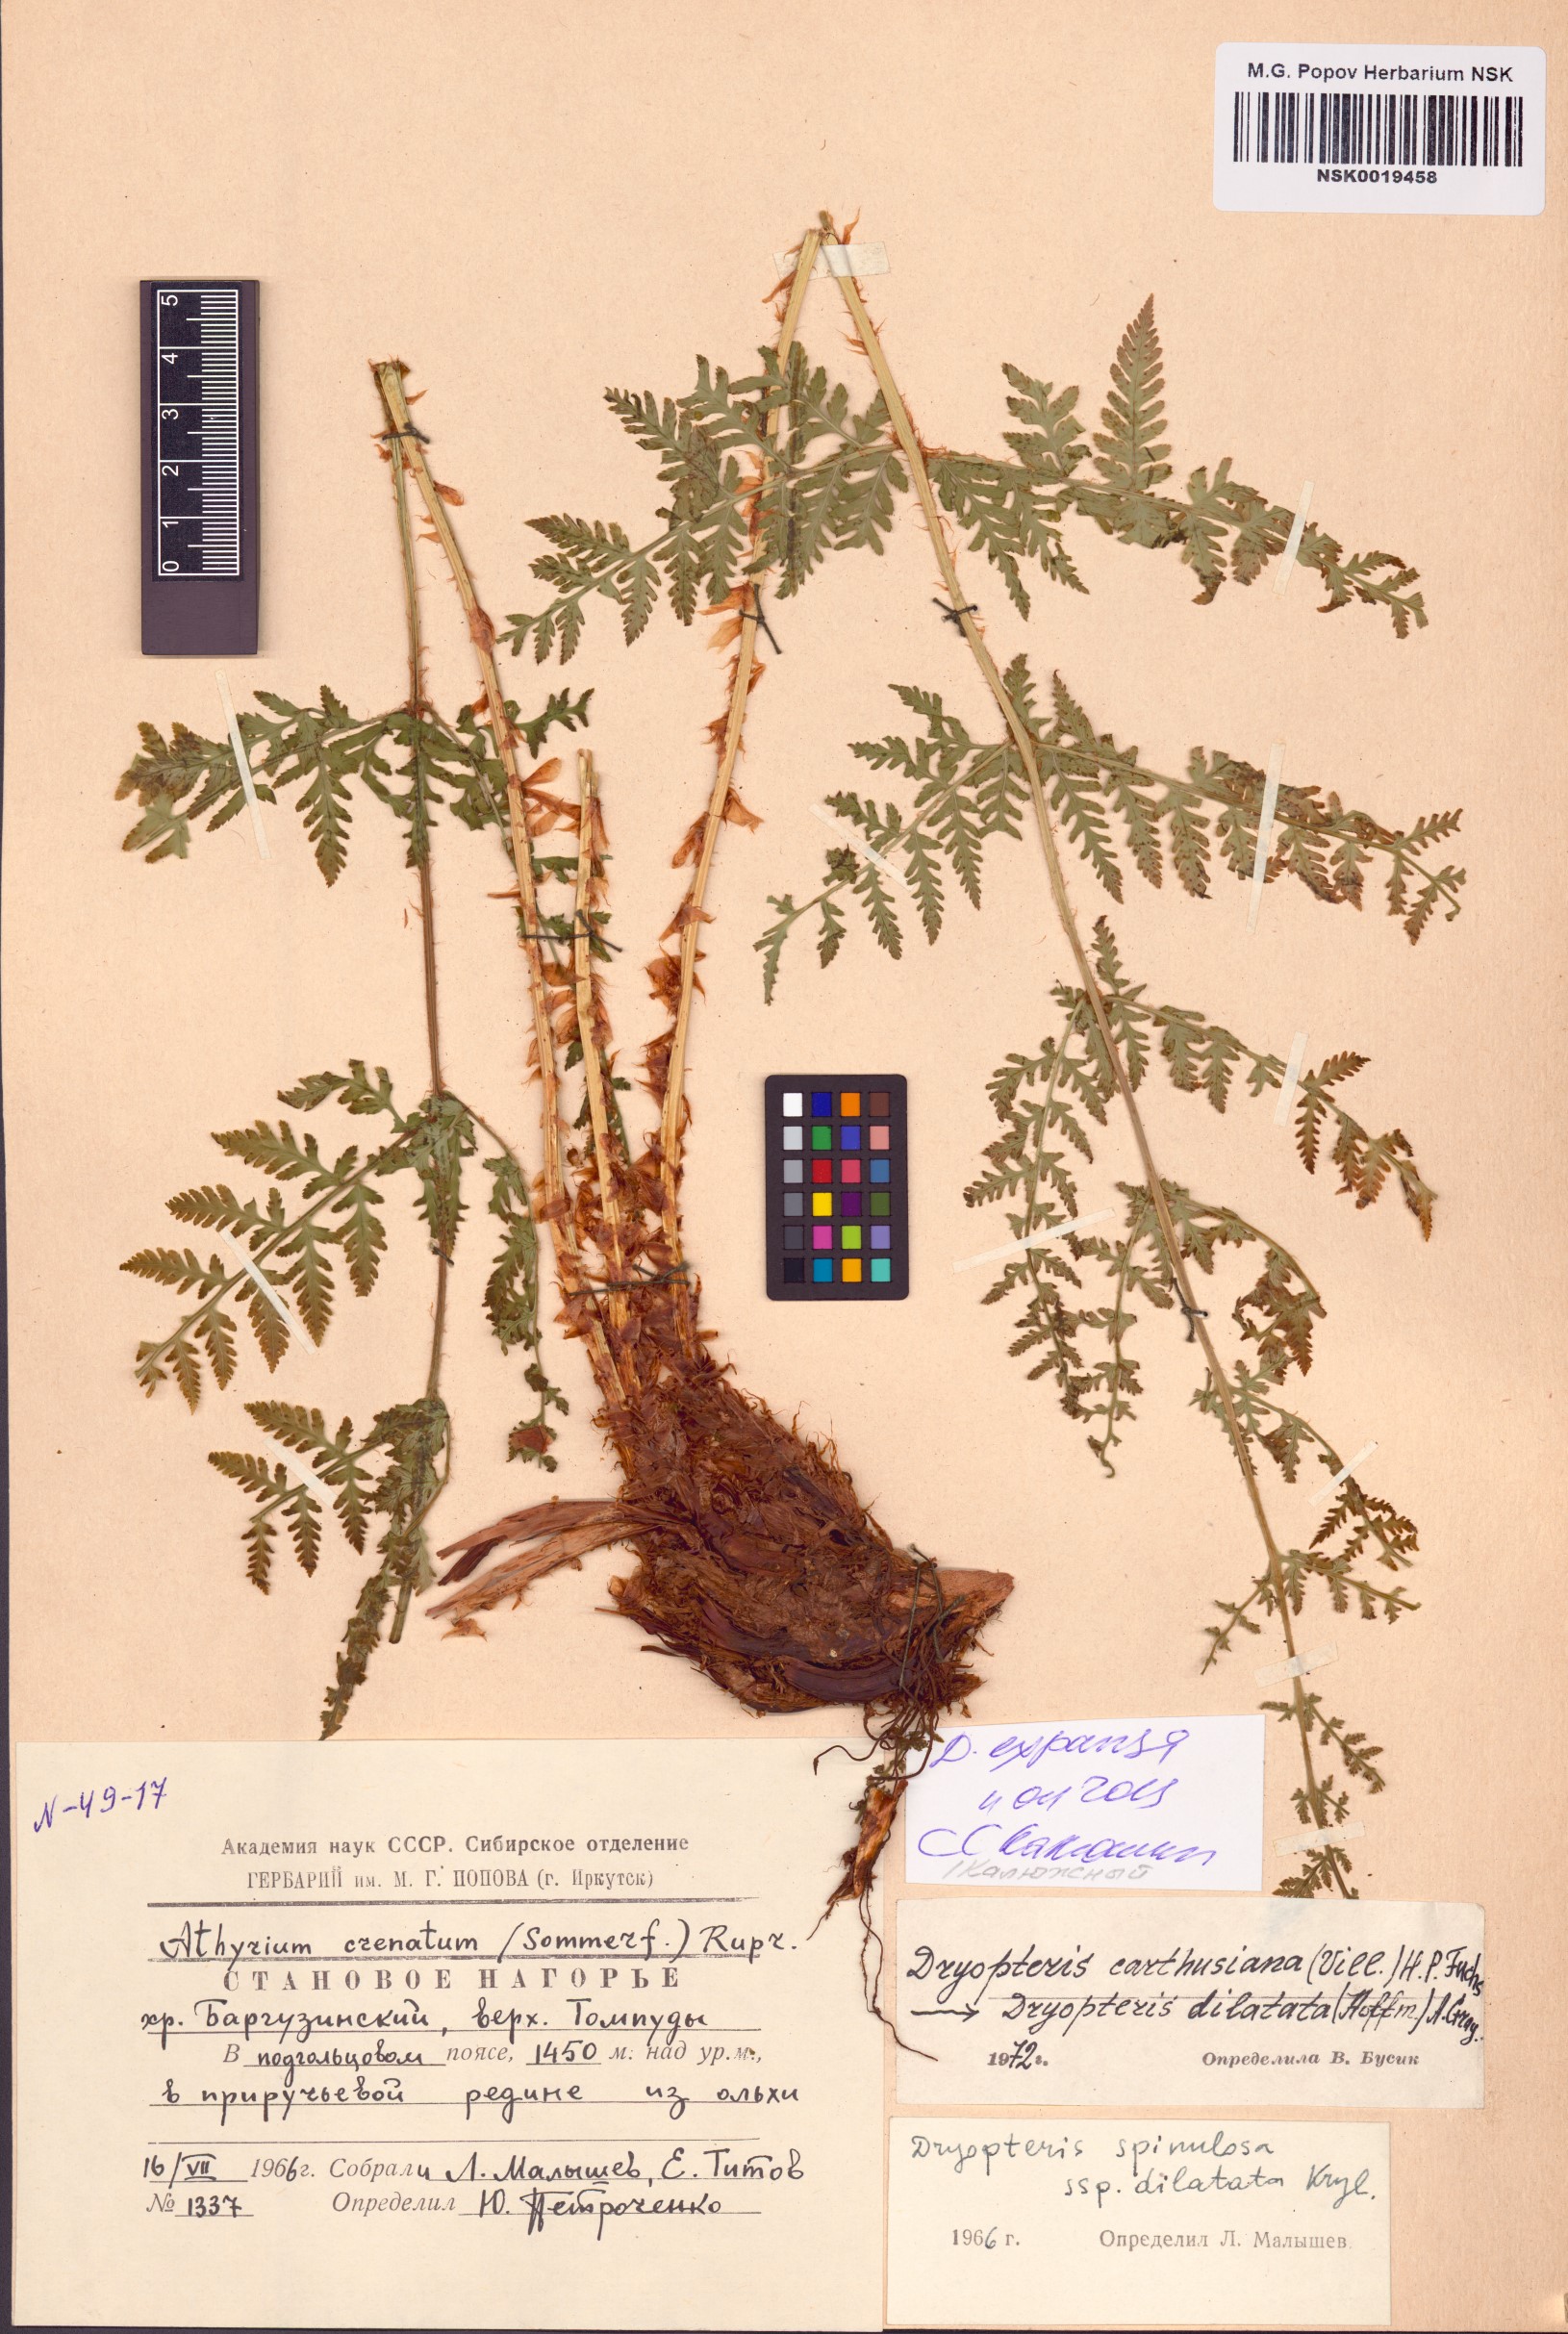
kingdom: Plantae
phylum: Tracheophyta
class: Polypodiopsida
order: Polypodiales
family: Dryopteridaceae
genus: Dryopteris
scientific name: Dryopteris expansa
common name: Northern buckler fern
